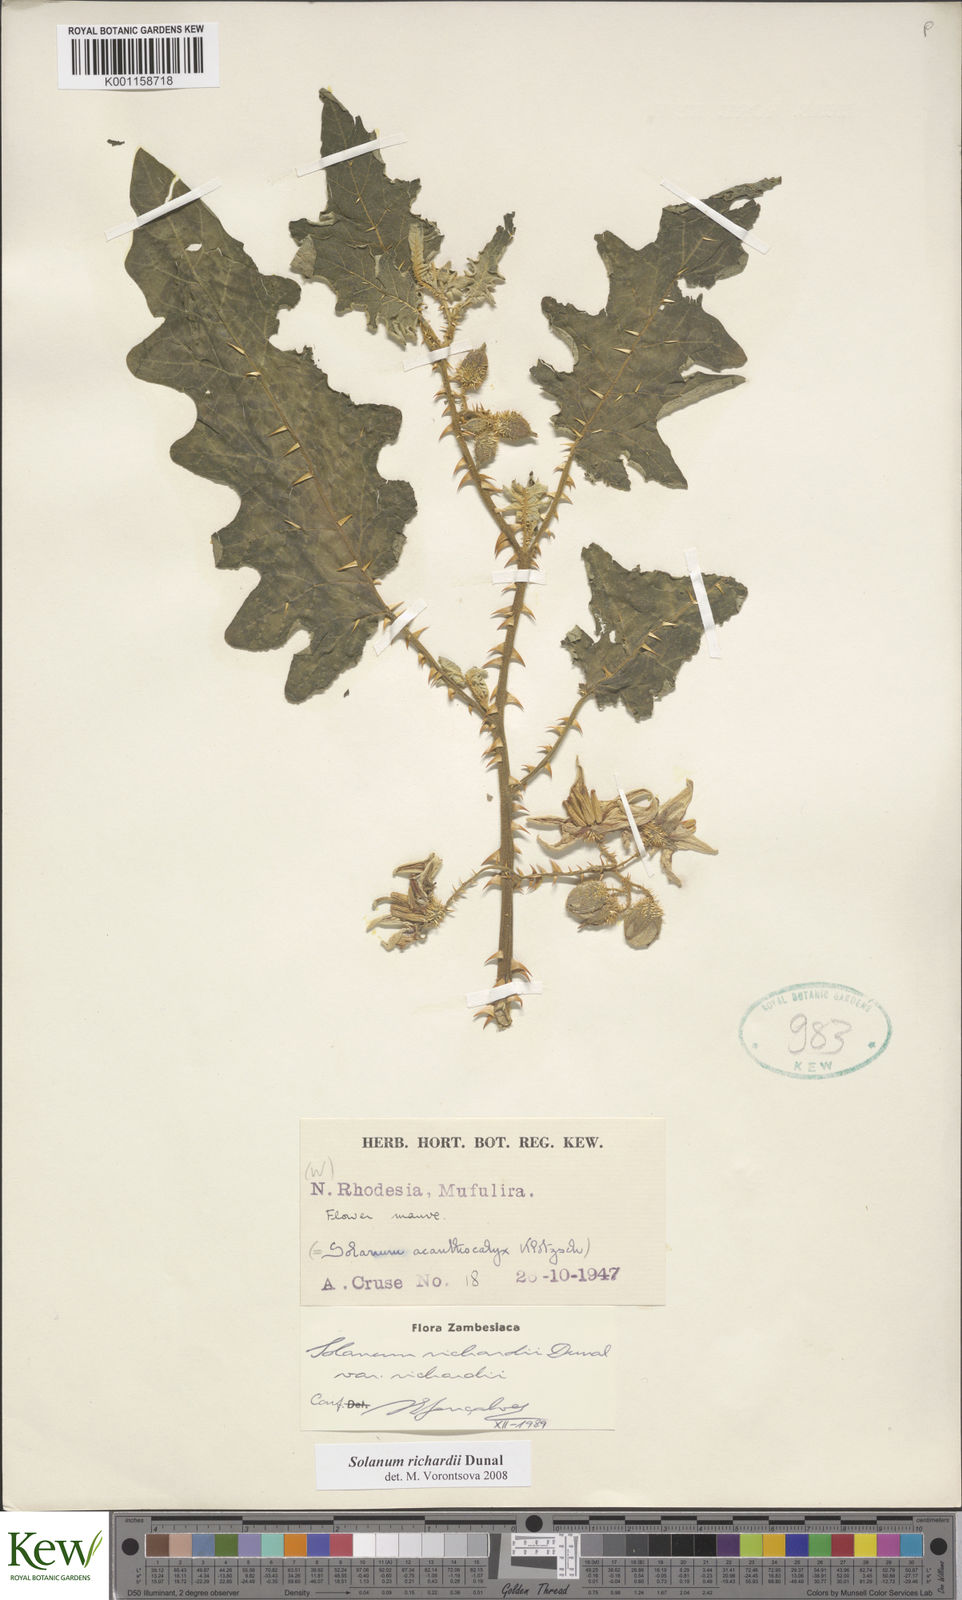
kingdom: Plantae
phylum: Tracheophyta
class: Magnoliopsida
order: Solanales
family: Solanaceae
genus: Solanum
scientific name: Solanum richardii
